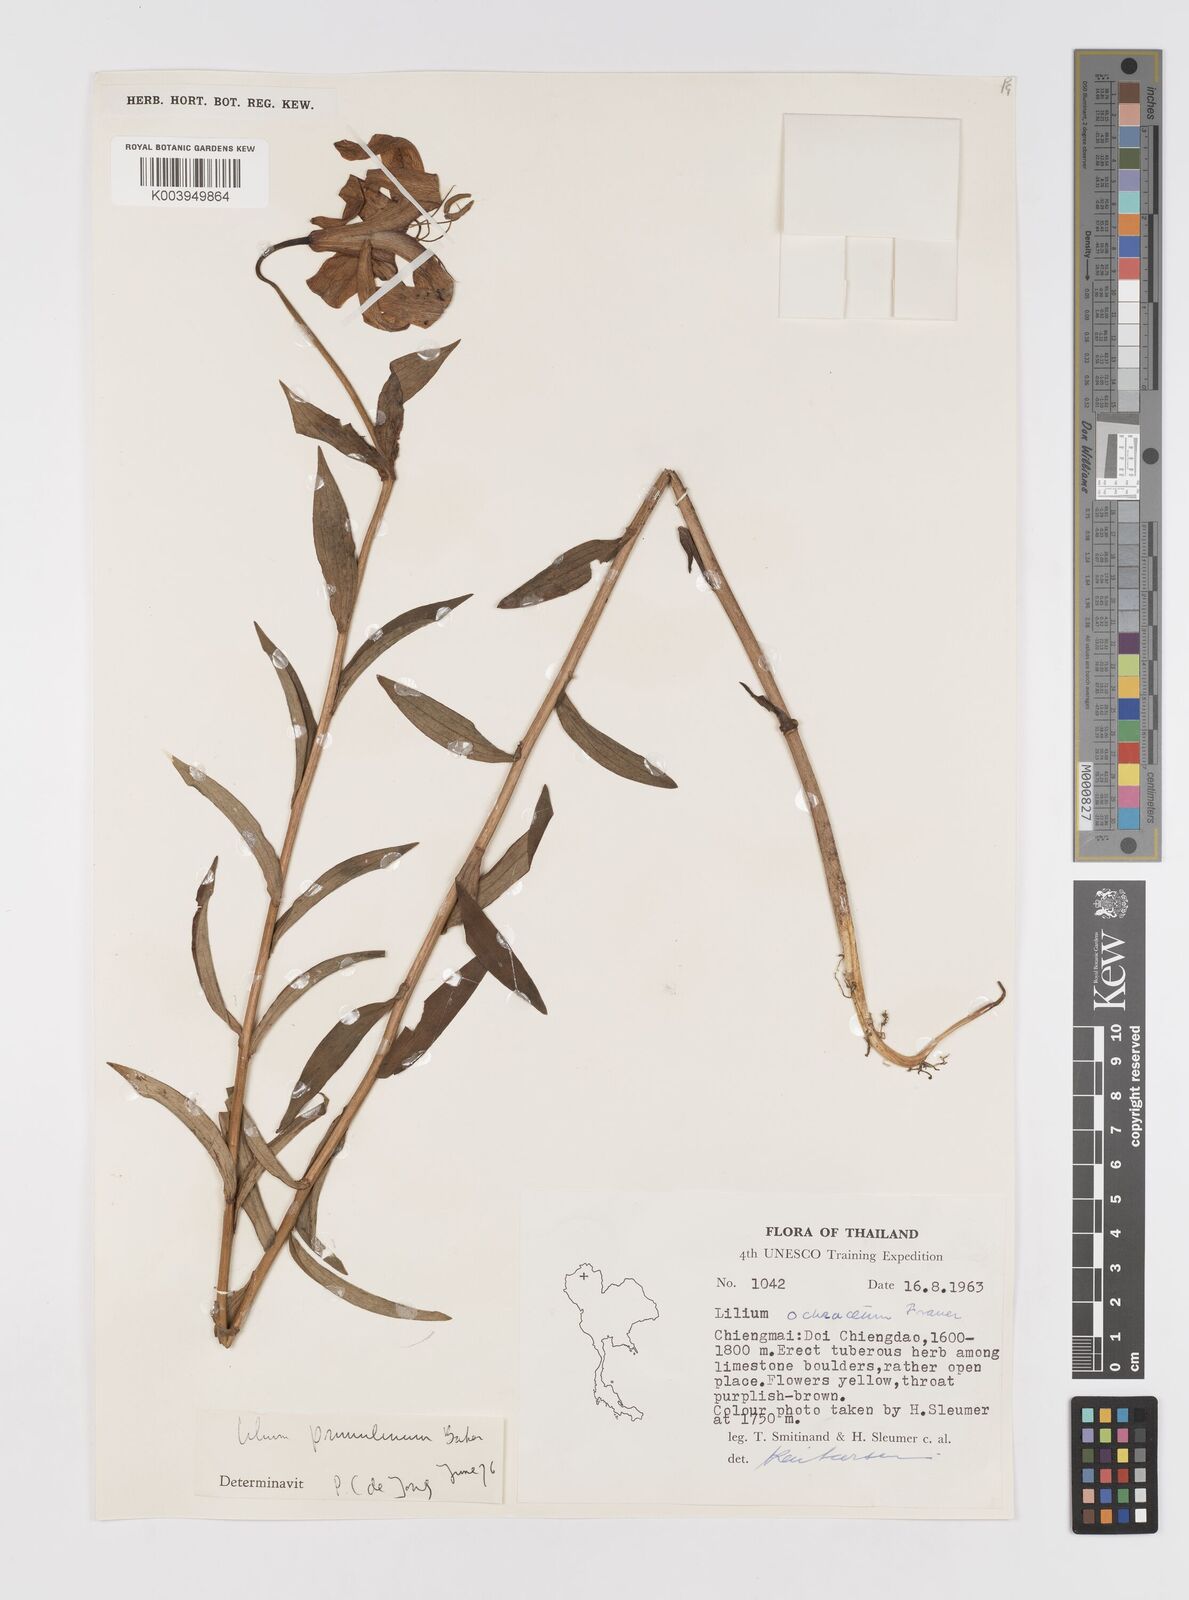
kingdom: Plantae
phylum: Tracheophyta
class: Liliopsida
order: Liliales
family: Liliaceae
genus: Lilium
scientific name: Lilium primulinum
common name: Ochre lily
